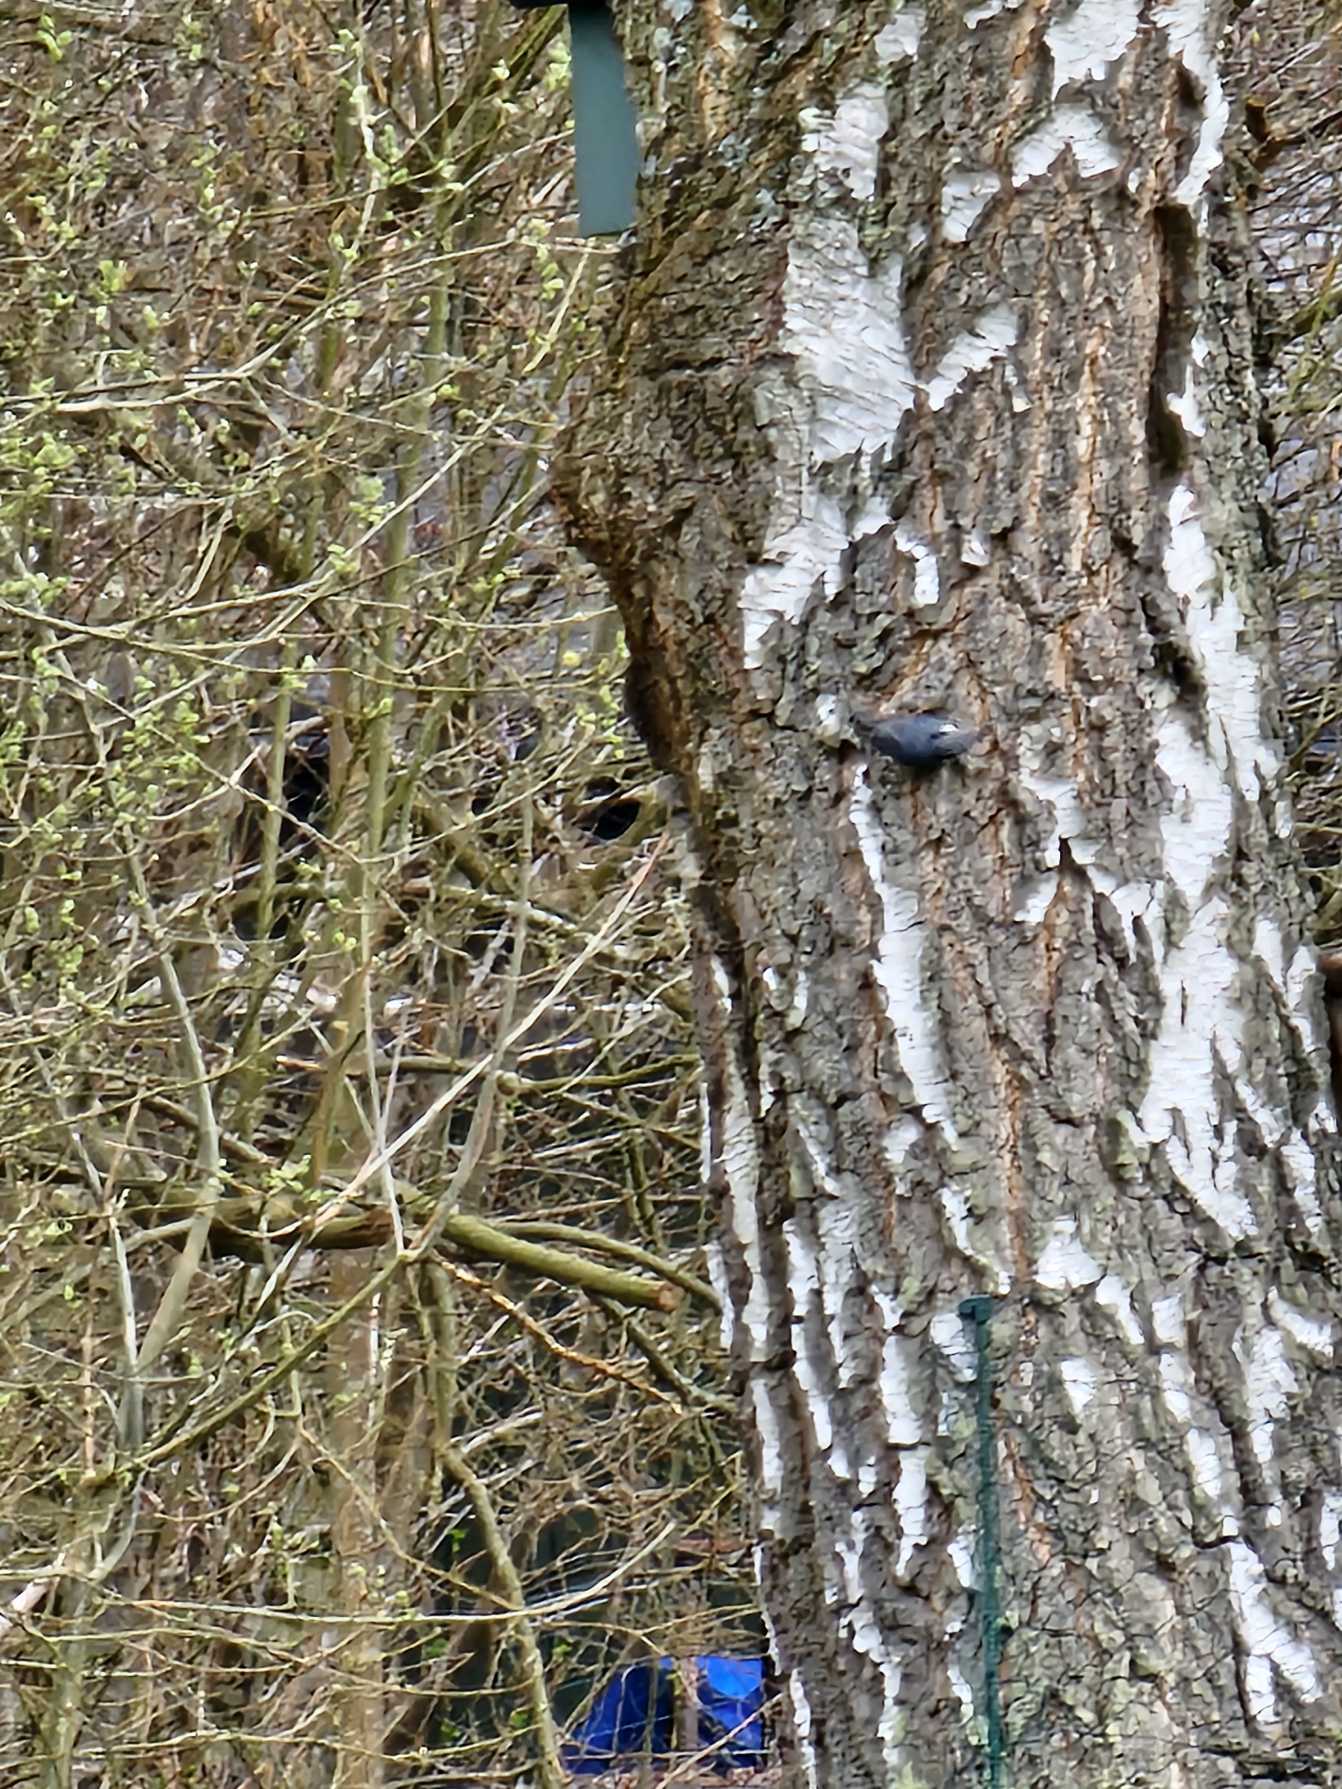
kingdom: Animalia
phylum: Chordata
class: Aves
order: Passeriformes
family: Sittidae
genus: Sitta
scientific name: Sitta europaea
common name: Spætmejse
